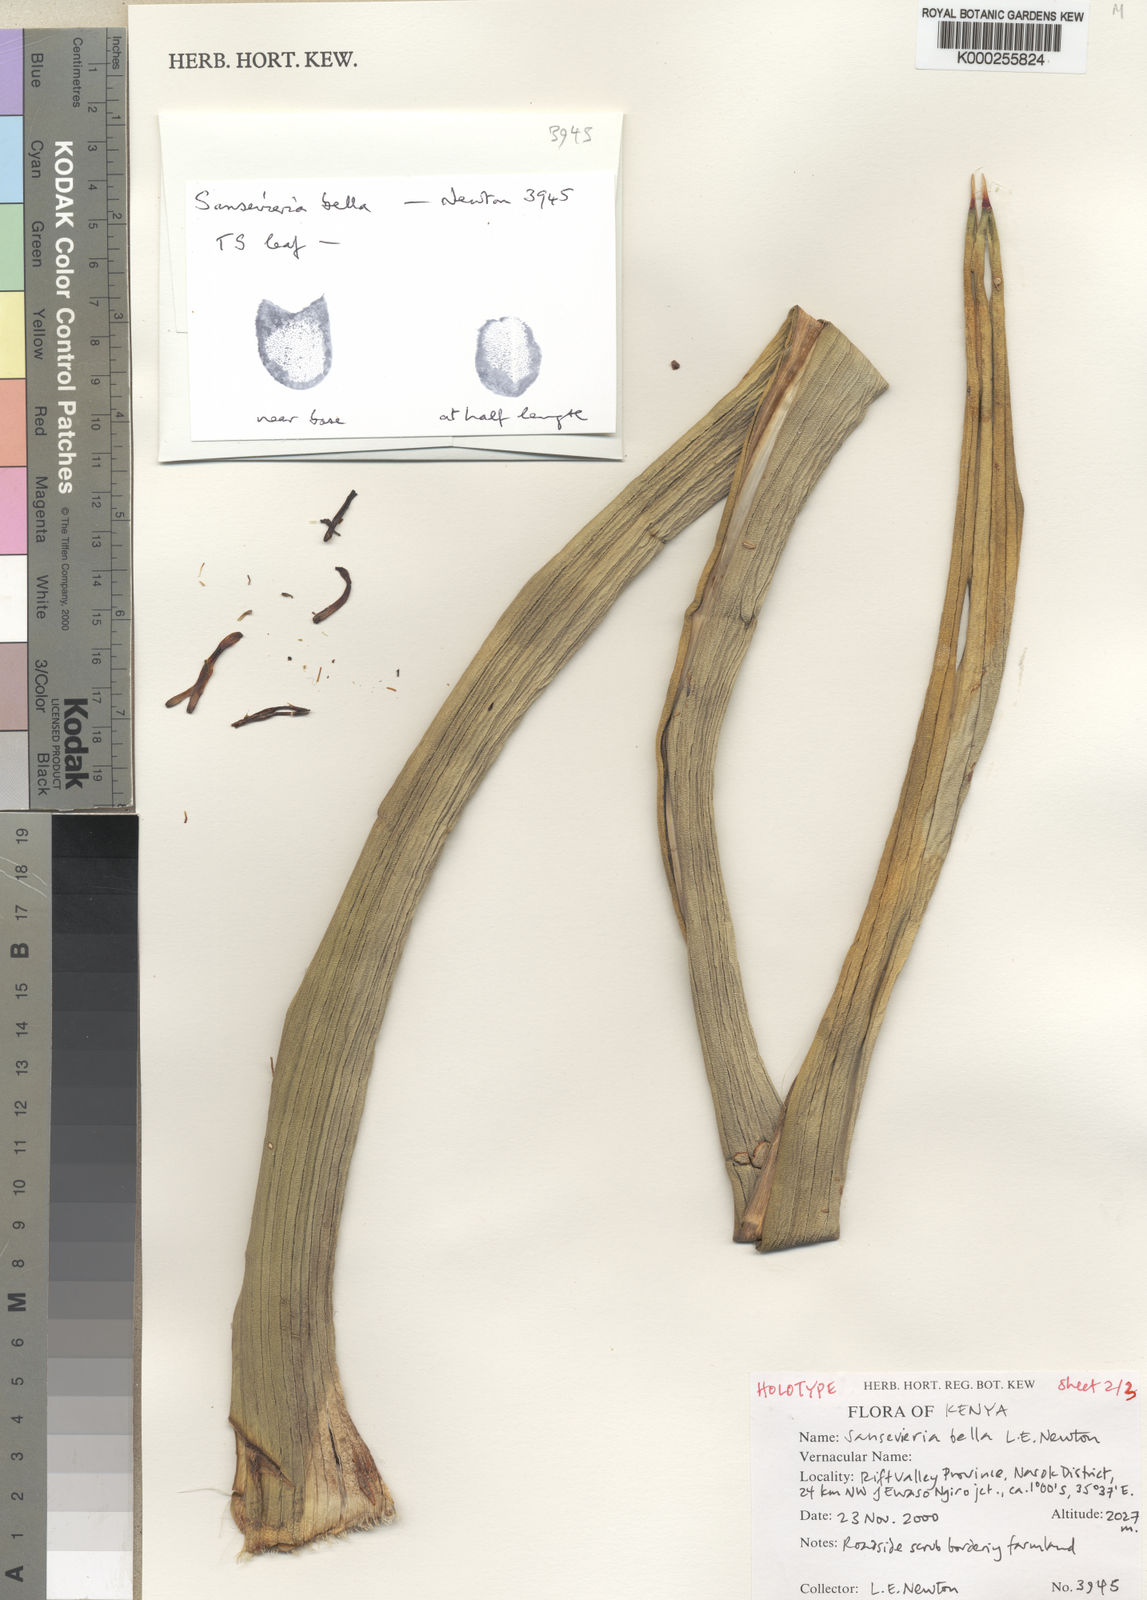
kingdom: Plantae
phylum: Tracheophyta
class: Liliopsida
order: Asparagales
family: Asparagaceae
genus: Dracaena
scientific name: Dracaena
